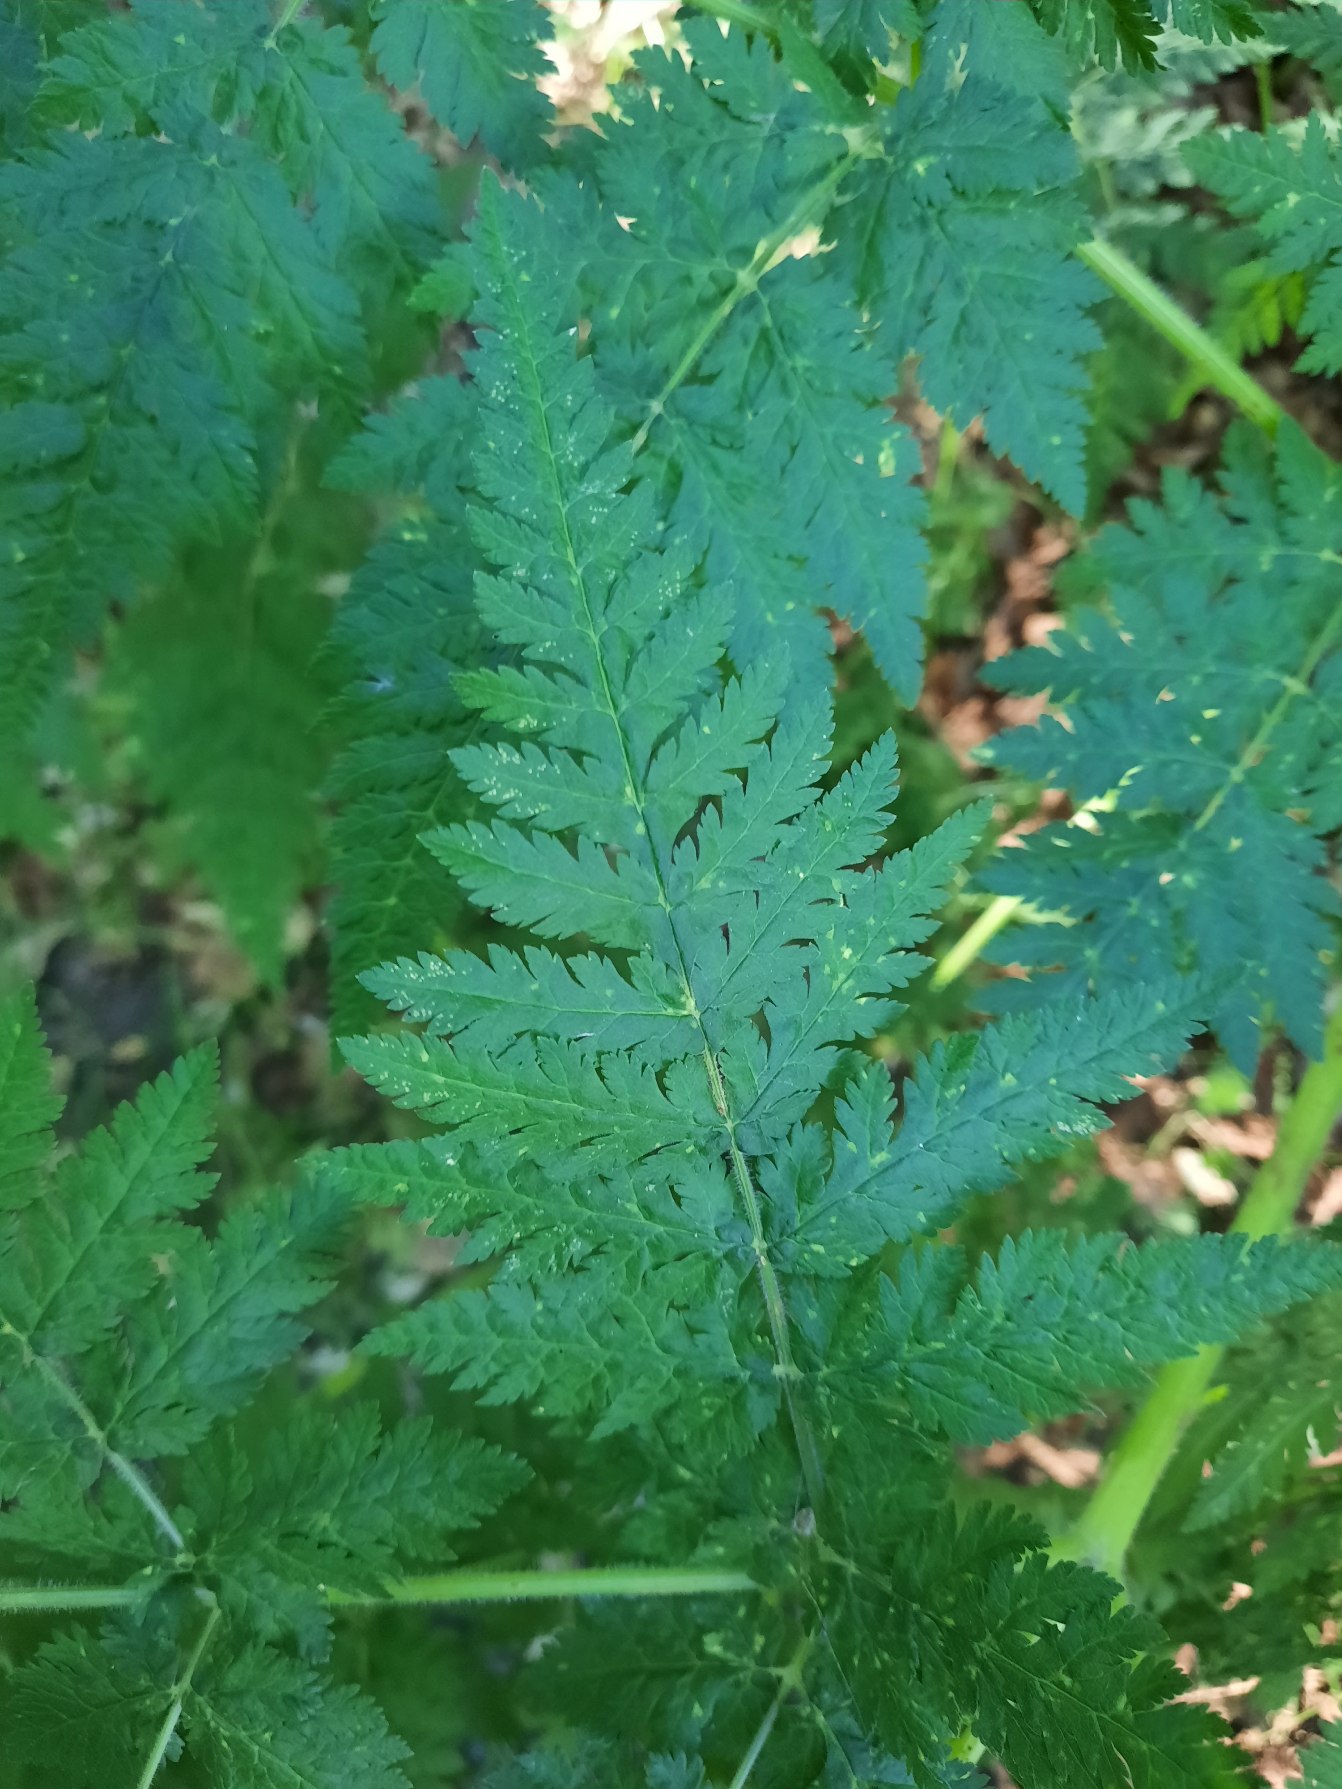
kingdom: Plantae
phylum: Tracheophyta
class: Magnoliopsida
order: Apiales
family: Apiaceae
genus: Myrrhis
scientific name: Myrrhis odorata
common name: Sødskærm
